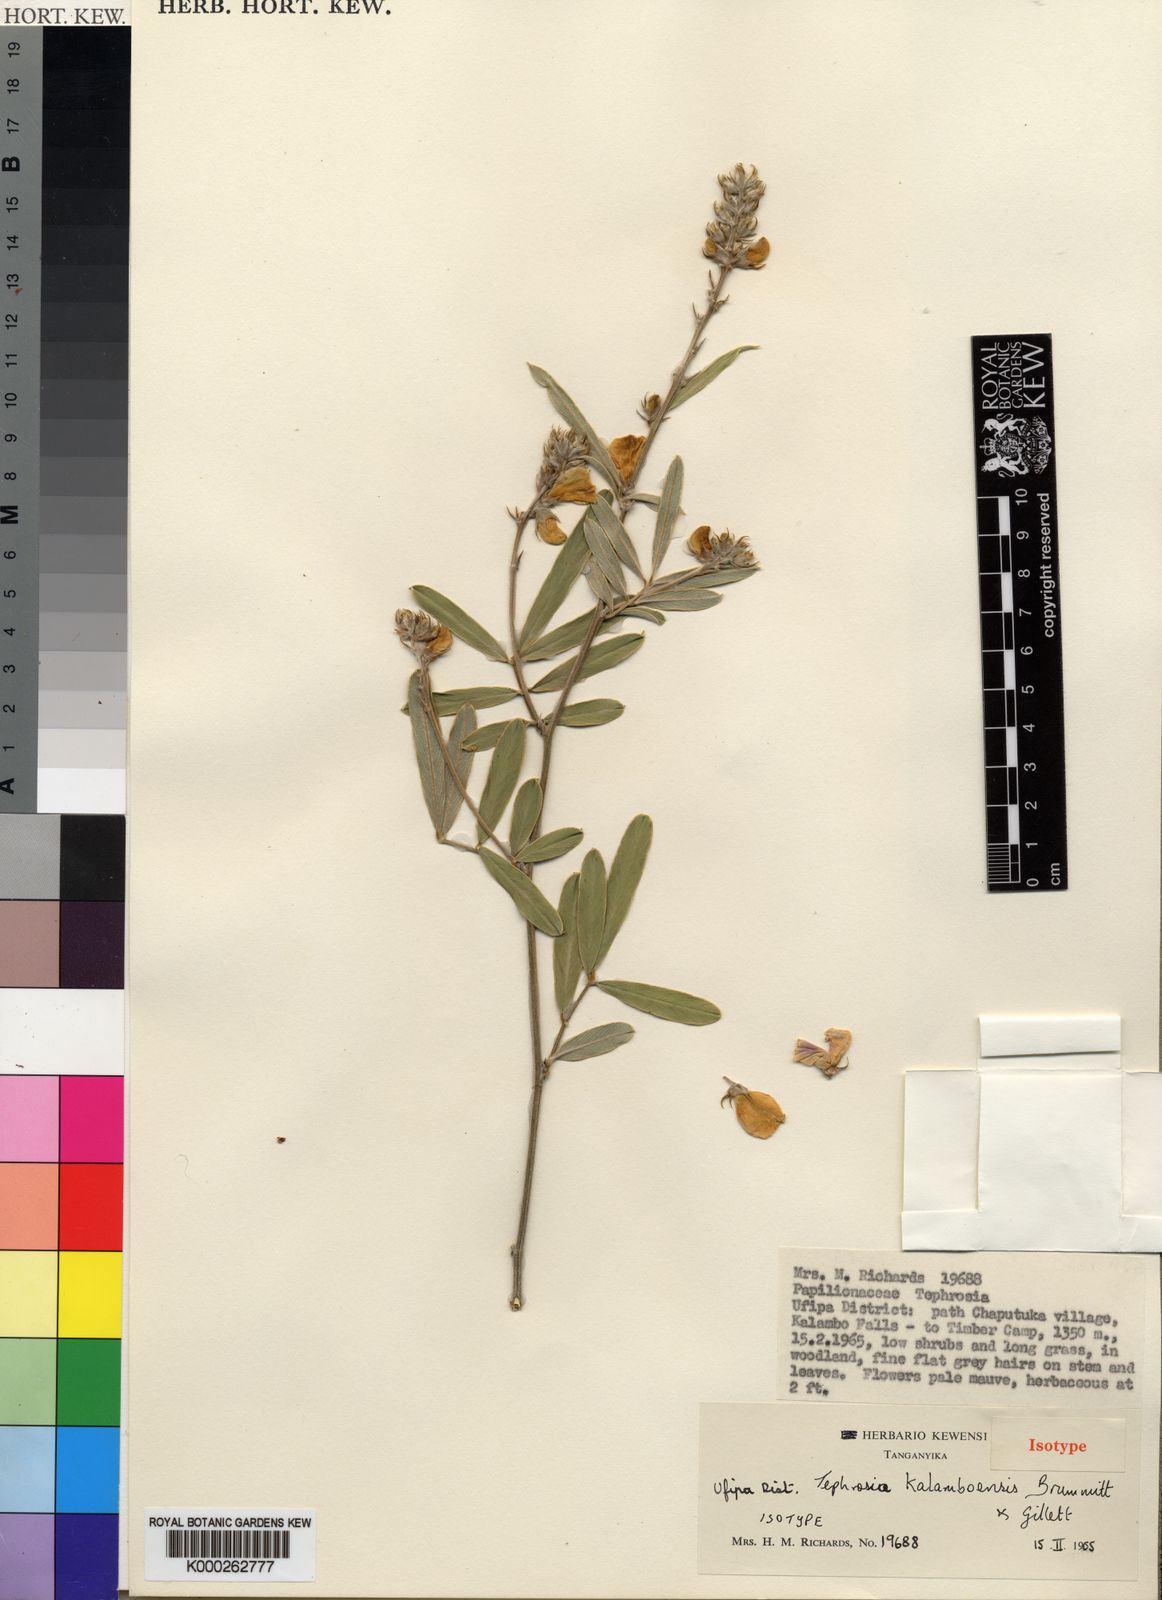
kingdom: Plantae
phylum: Tracheophyta
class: Magnoliopsida
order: Fabales
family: Fabaceae
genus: Tephrosia
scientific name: Tephrosia kalamboensis
